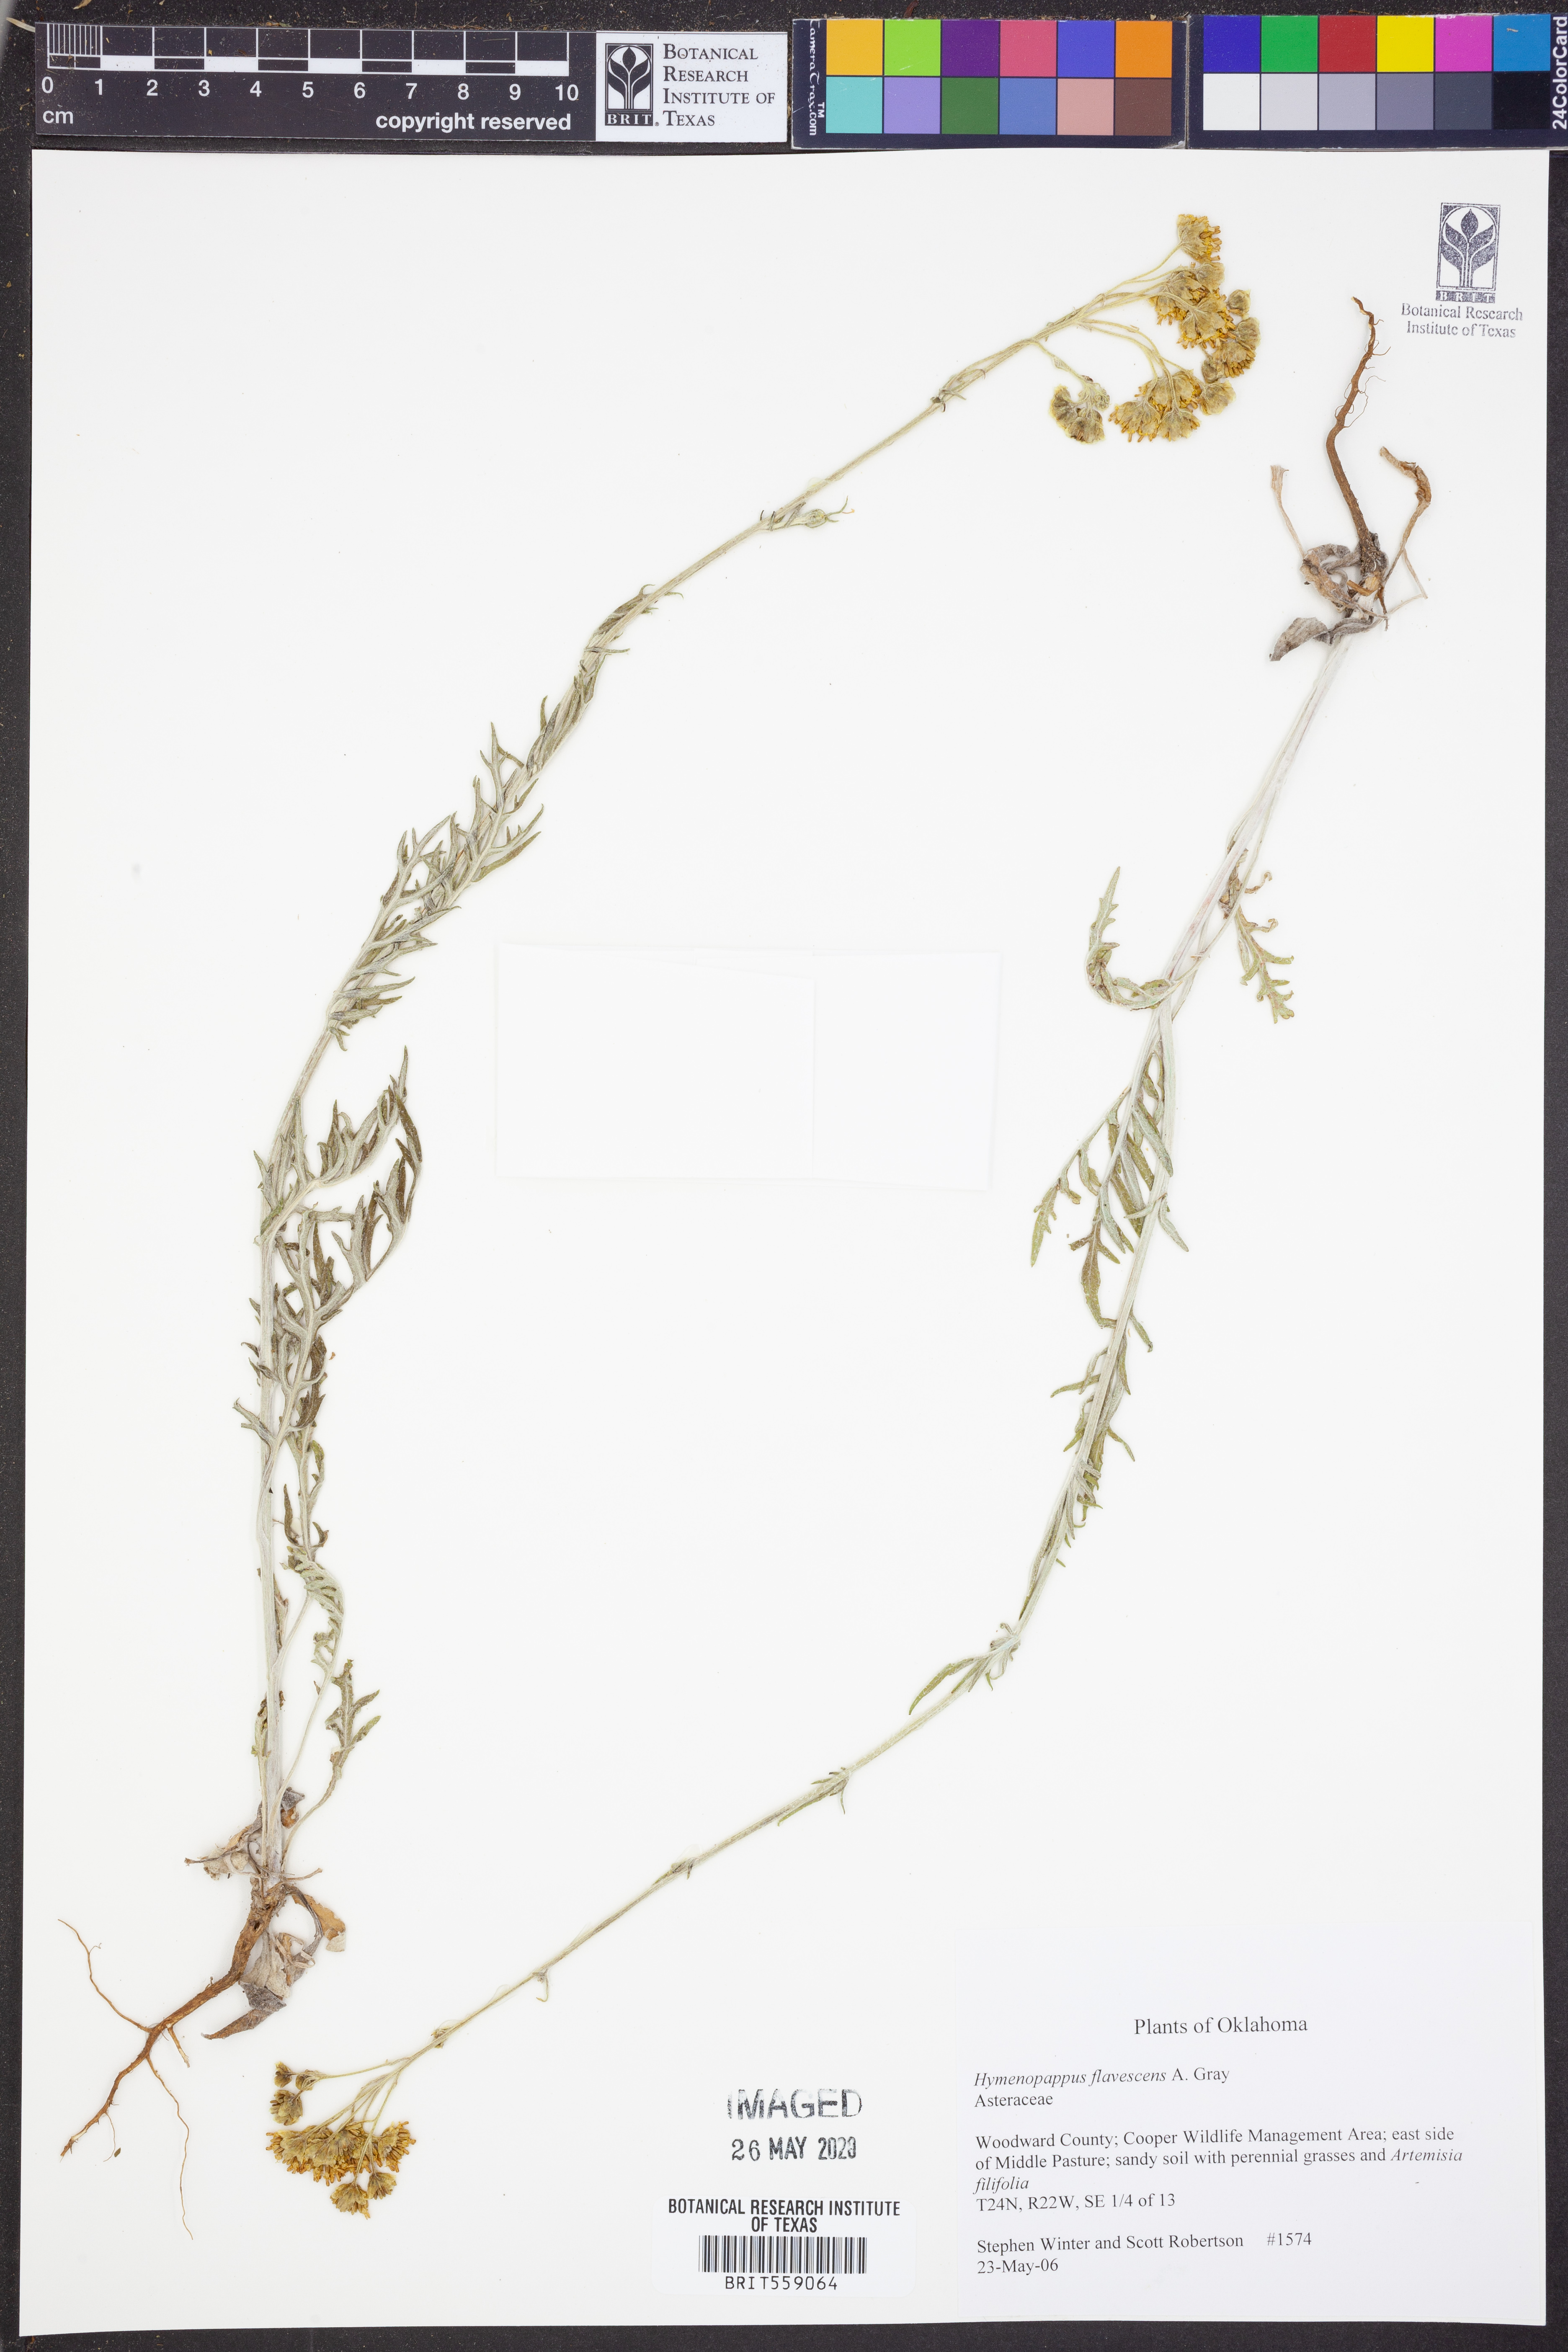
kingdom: Plantae
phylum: Tracheophyta
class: Magnoliopsida
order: Asterales
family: Asteraceae
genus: Hymenopappus
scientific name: Hymenopappus flavescens
